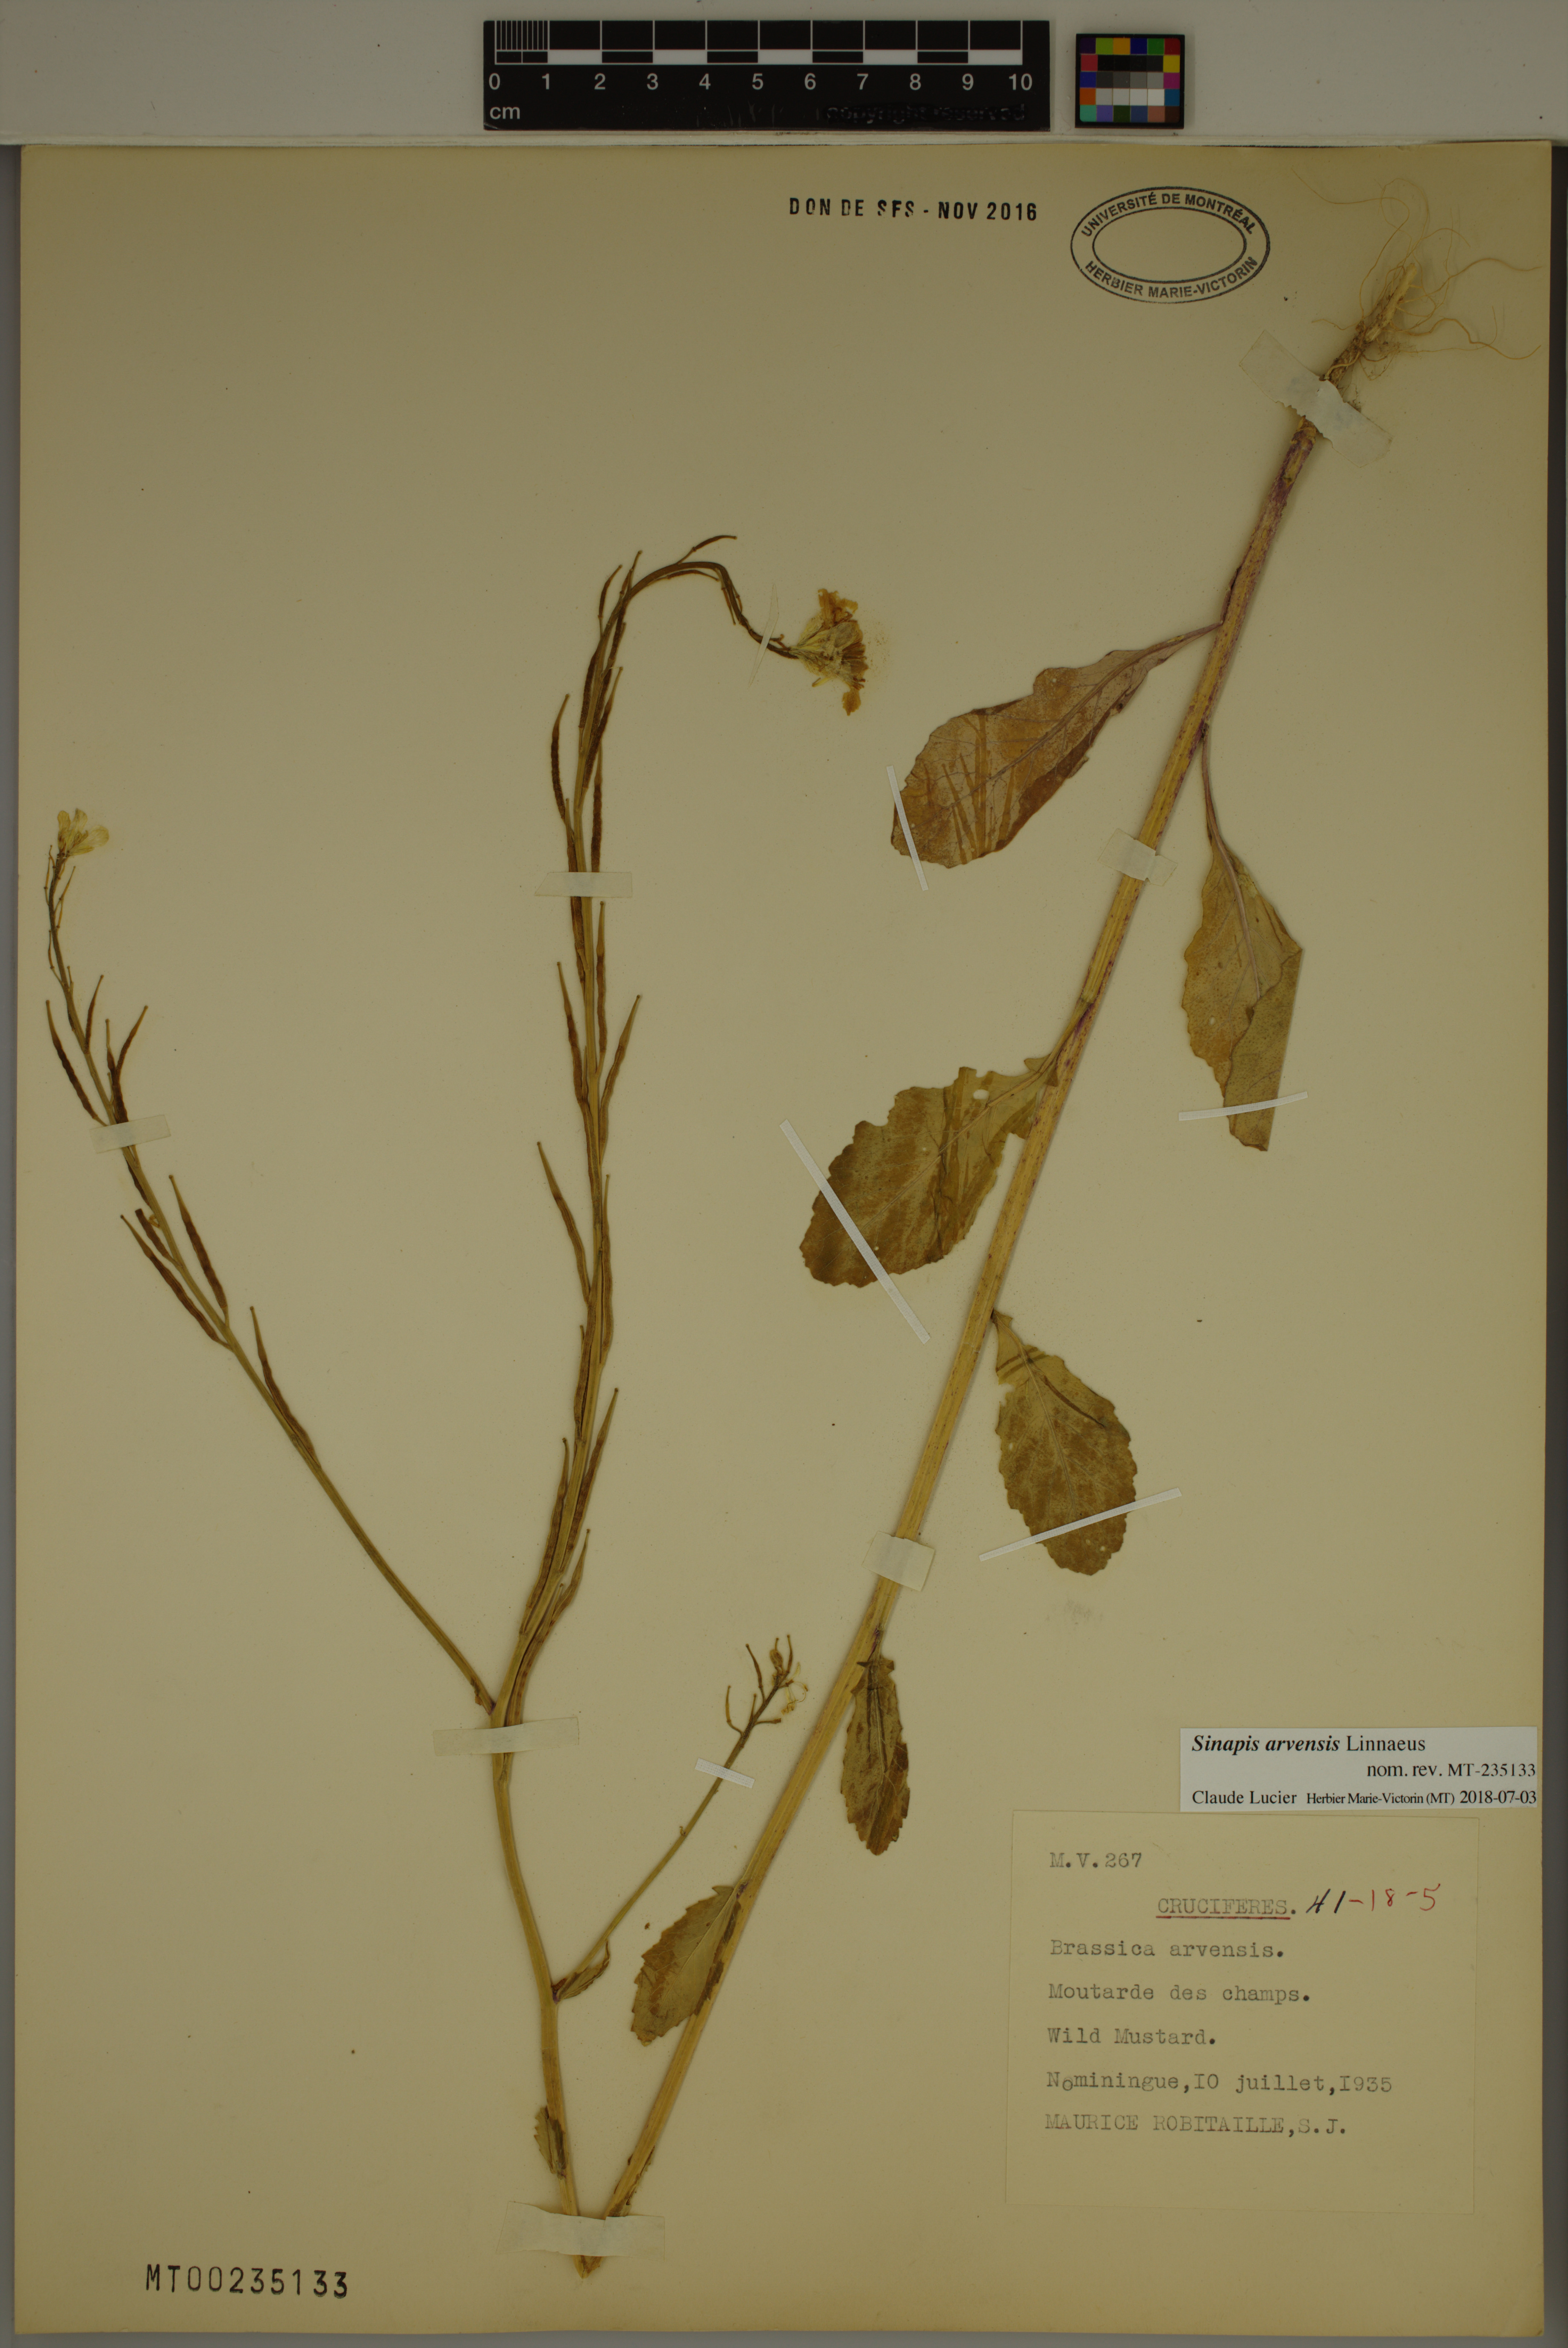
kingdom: Plantae
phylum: Tracheophyta
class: Magnoliopsida
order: Brassicales
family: Brassicaceae
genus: Sinapis
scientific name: Sinapis arvensis
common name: Charlock
